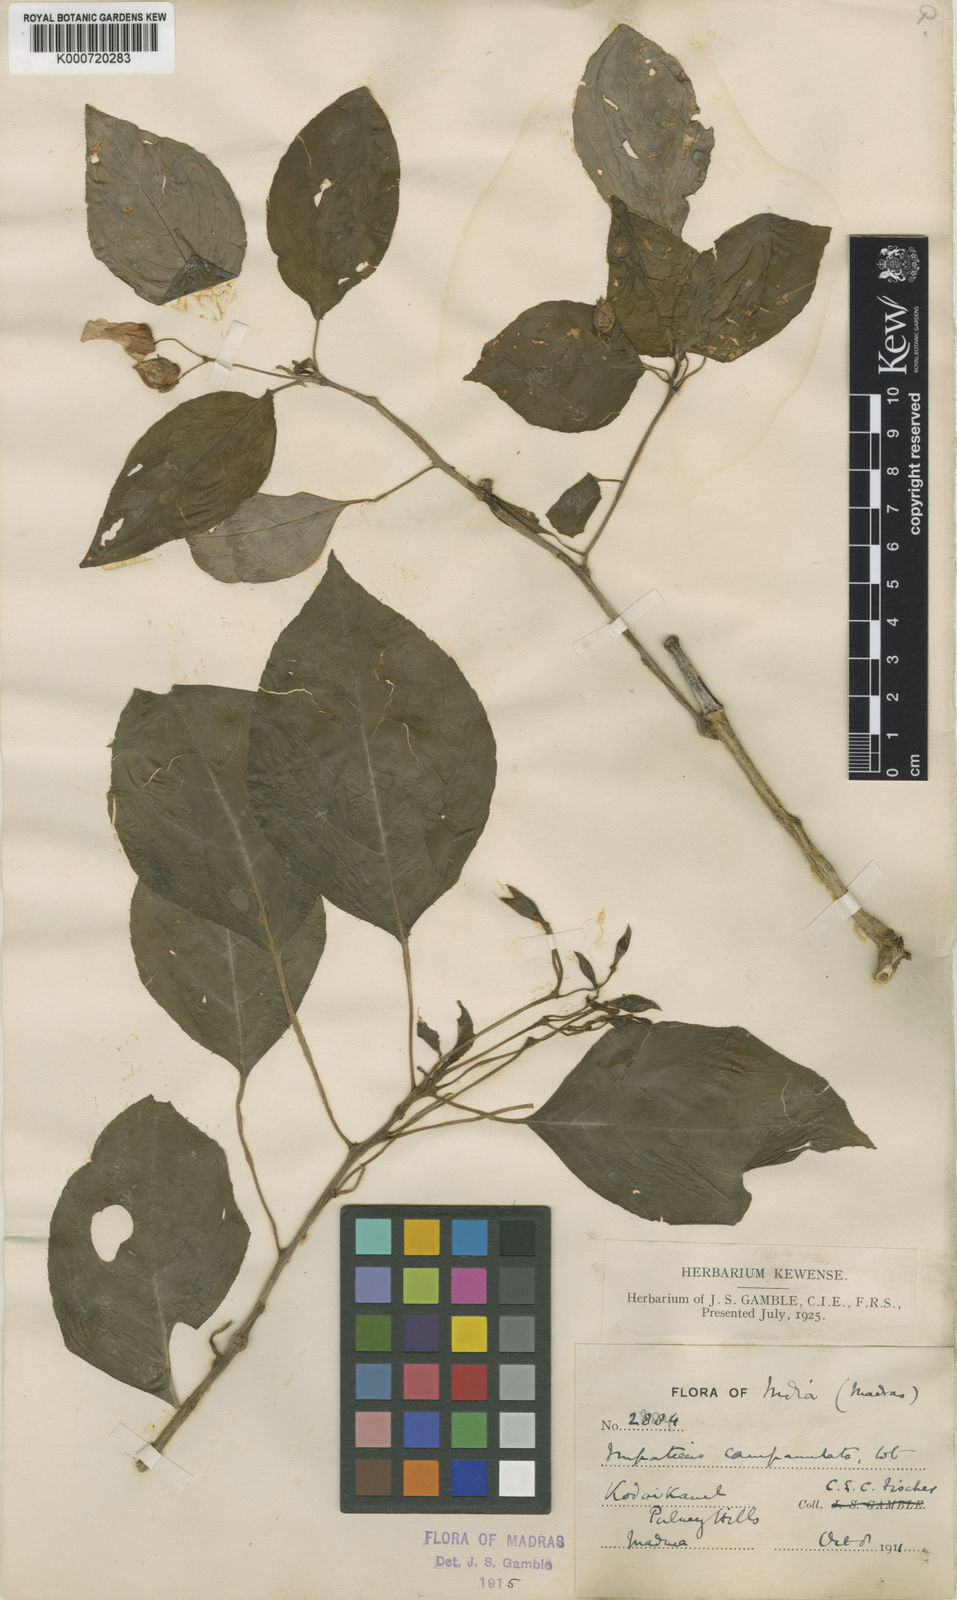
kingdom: Plantae
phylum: Tracheophyta
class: Magnoliopsida
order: Ericales
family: Balsaminaceae
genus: Impatiens
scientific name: Impatiens campanulata
